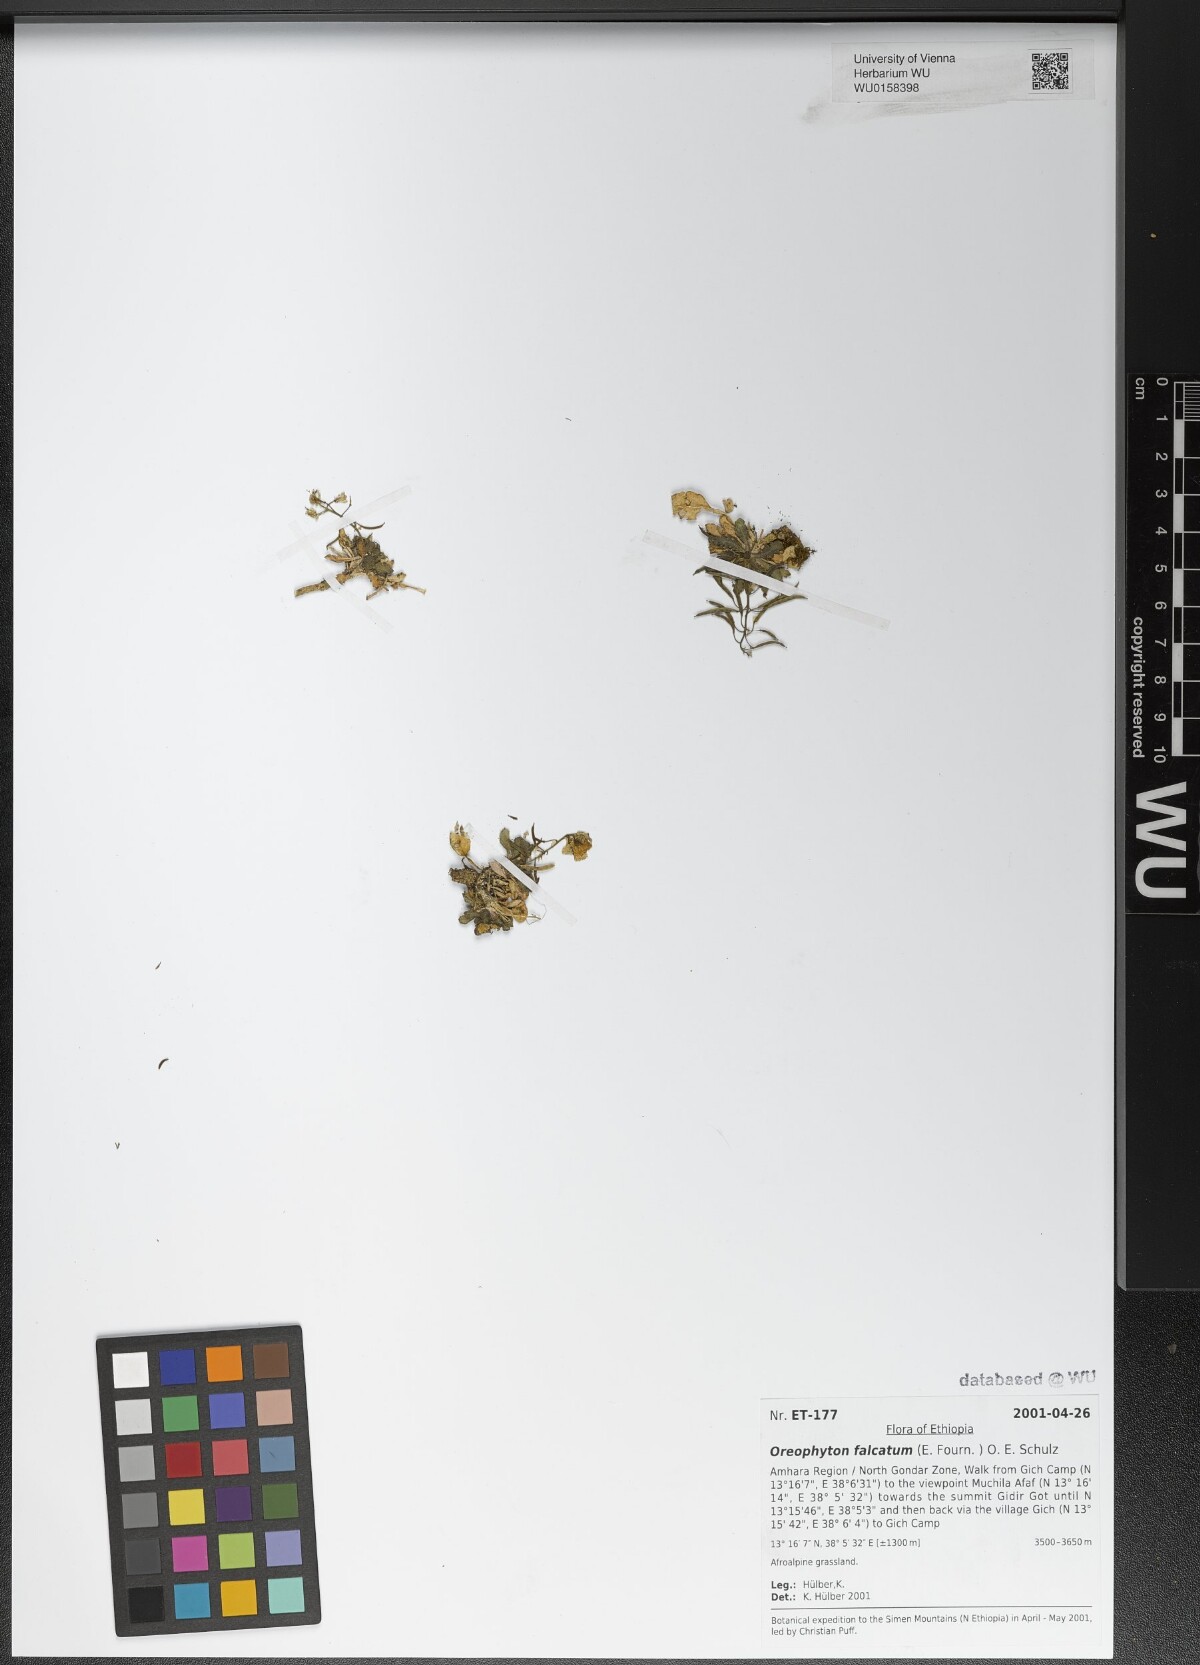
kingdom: Plantae
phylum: Tracheophyta
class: Magnoliopsida
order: Brassicales
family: Brassicaceae
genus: Oreophyton
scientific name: Oreophyton falcatum
